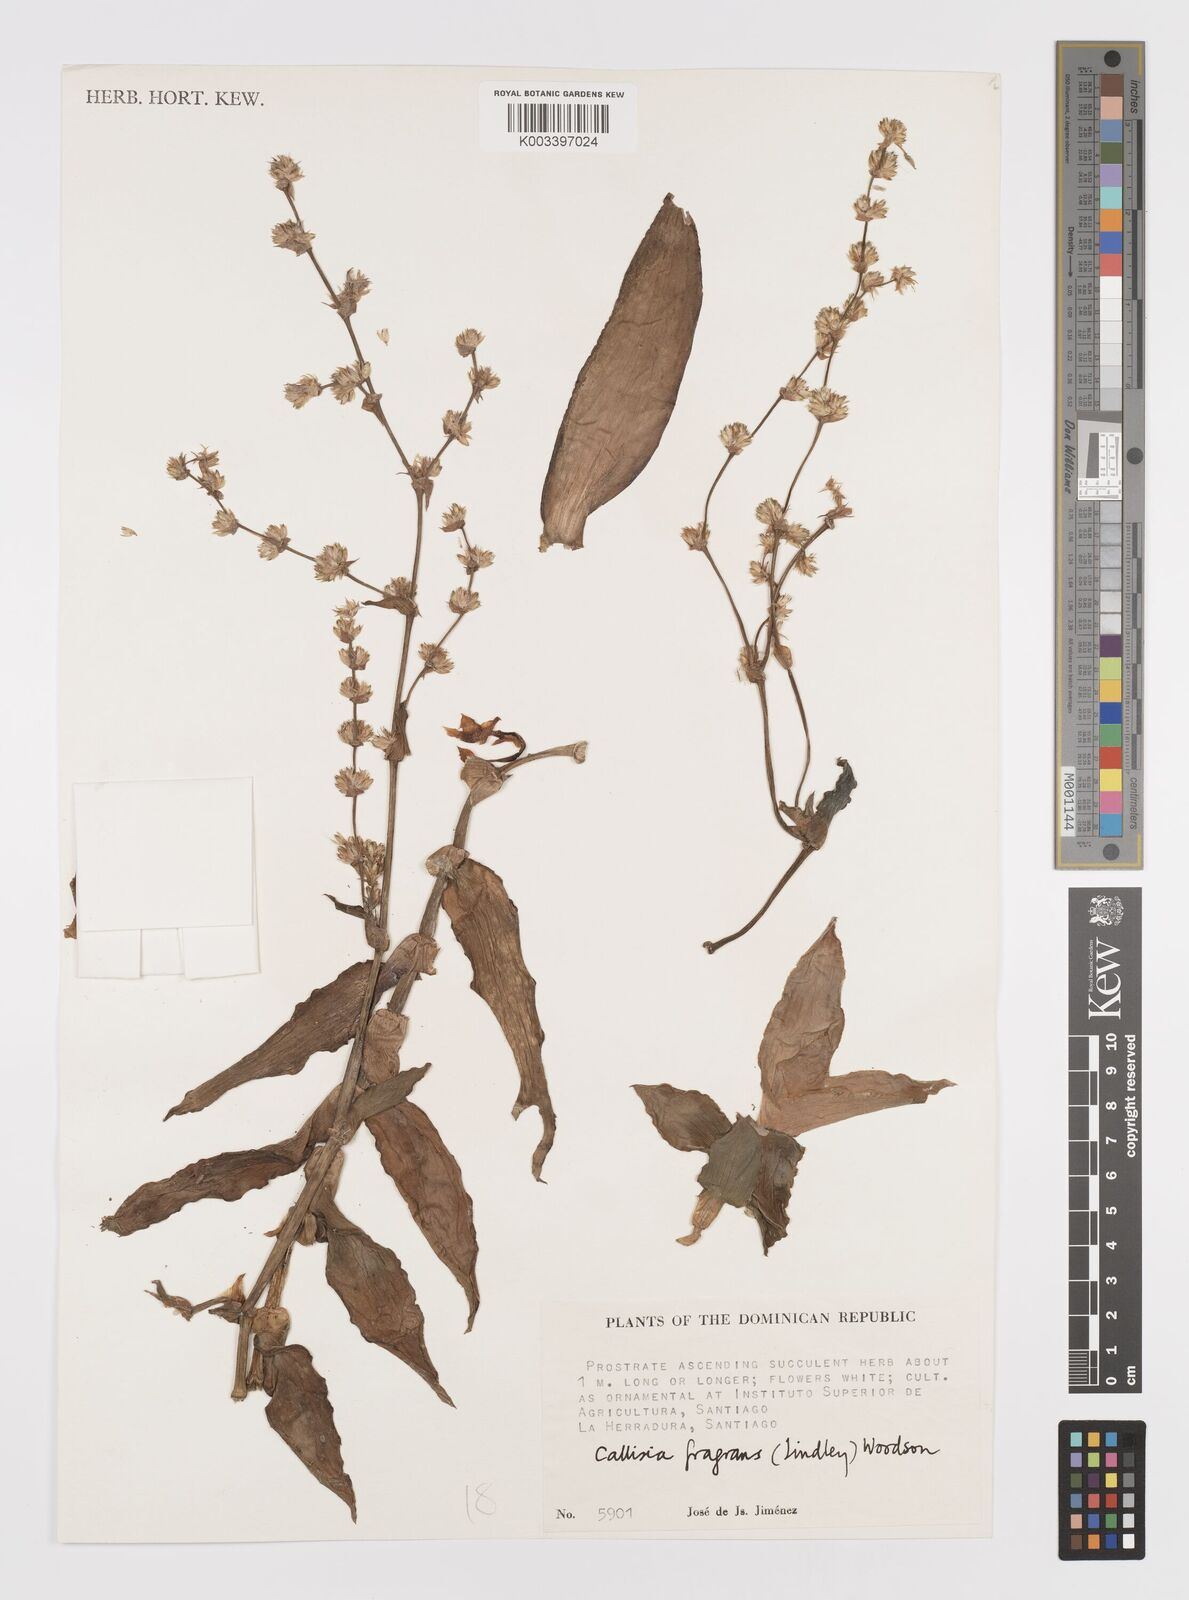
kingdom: Plantae
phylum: Tracheophyta
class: Liliopsida
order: Commelinales
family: Commelinaceae
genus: Callisia
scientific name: Callisia fragrans
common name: Basketplant
